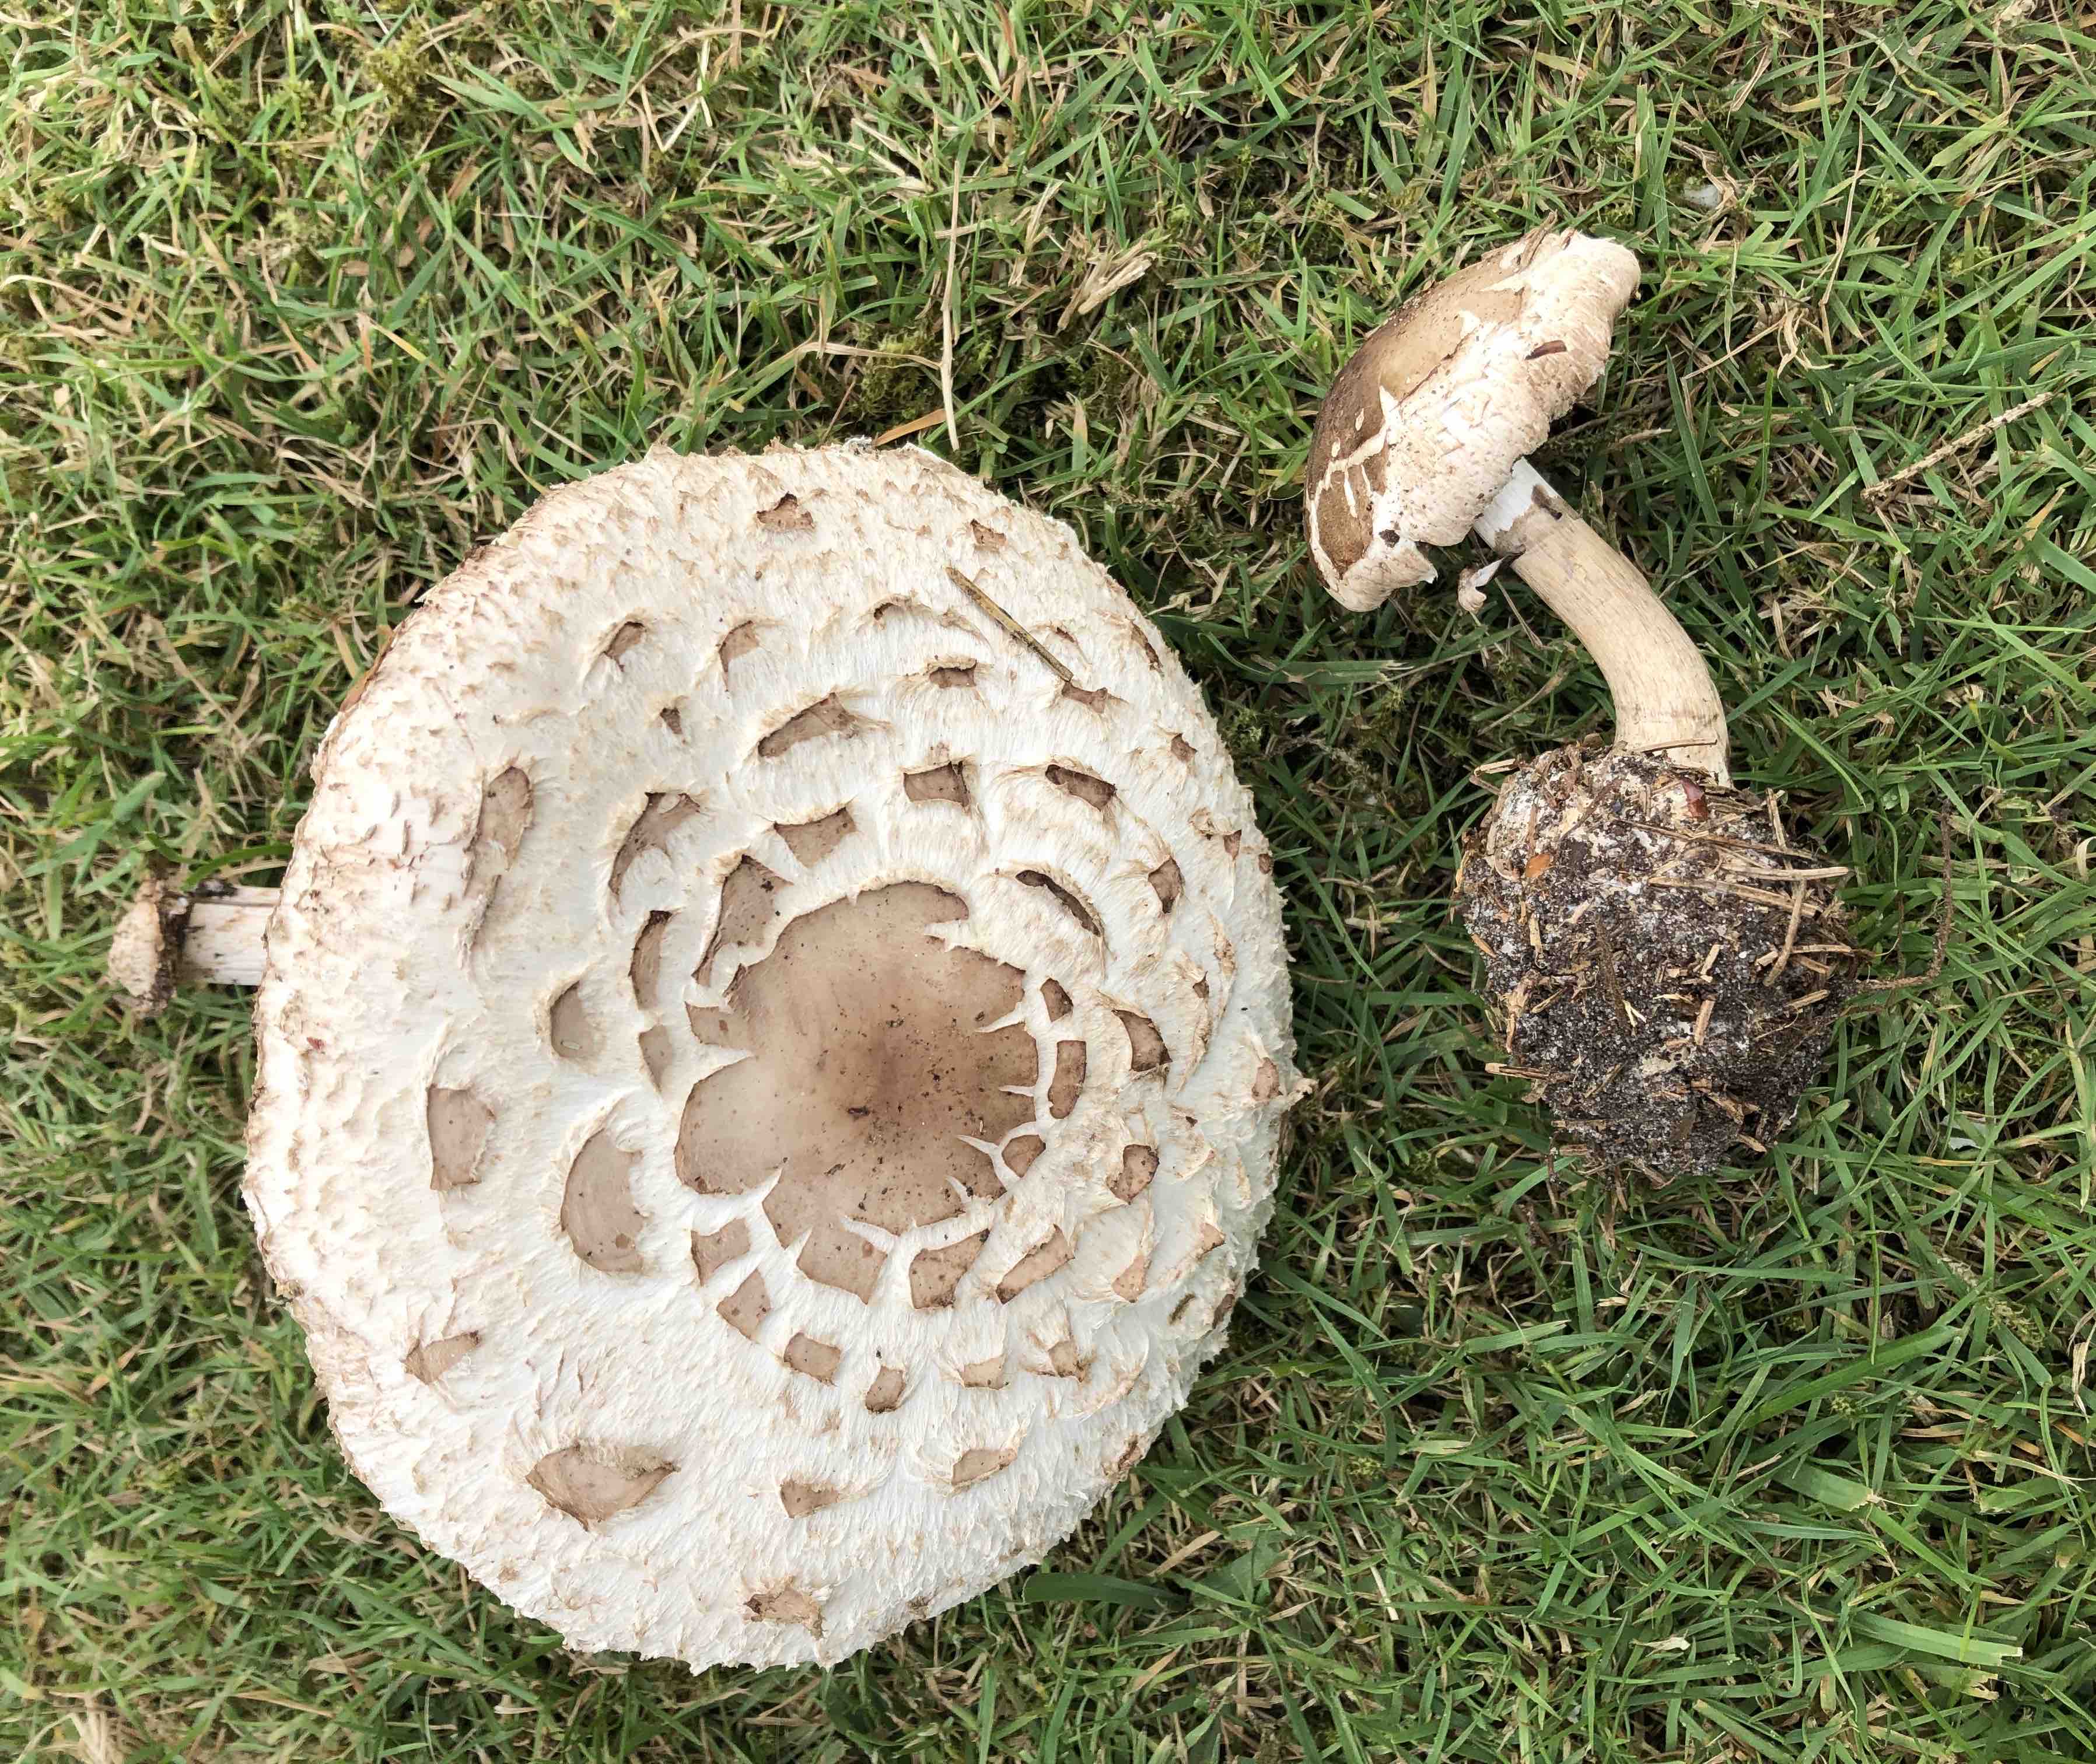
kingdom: Fungi
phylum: Basidiomycota
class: Agaricomycetes
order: Agaricales
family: Agaricaceae
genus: Chlorophyllum
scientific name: Chlorophyllum olivieri
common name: almindelig rabarberhat
